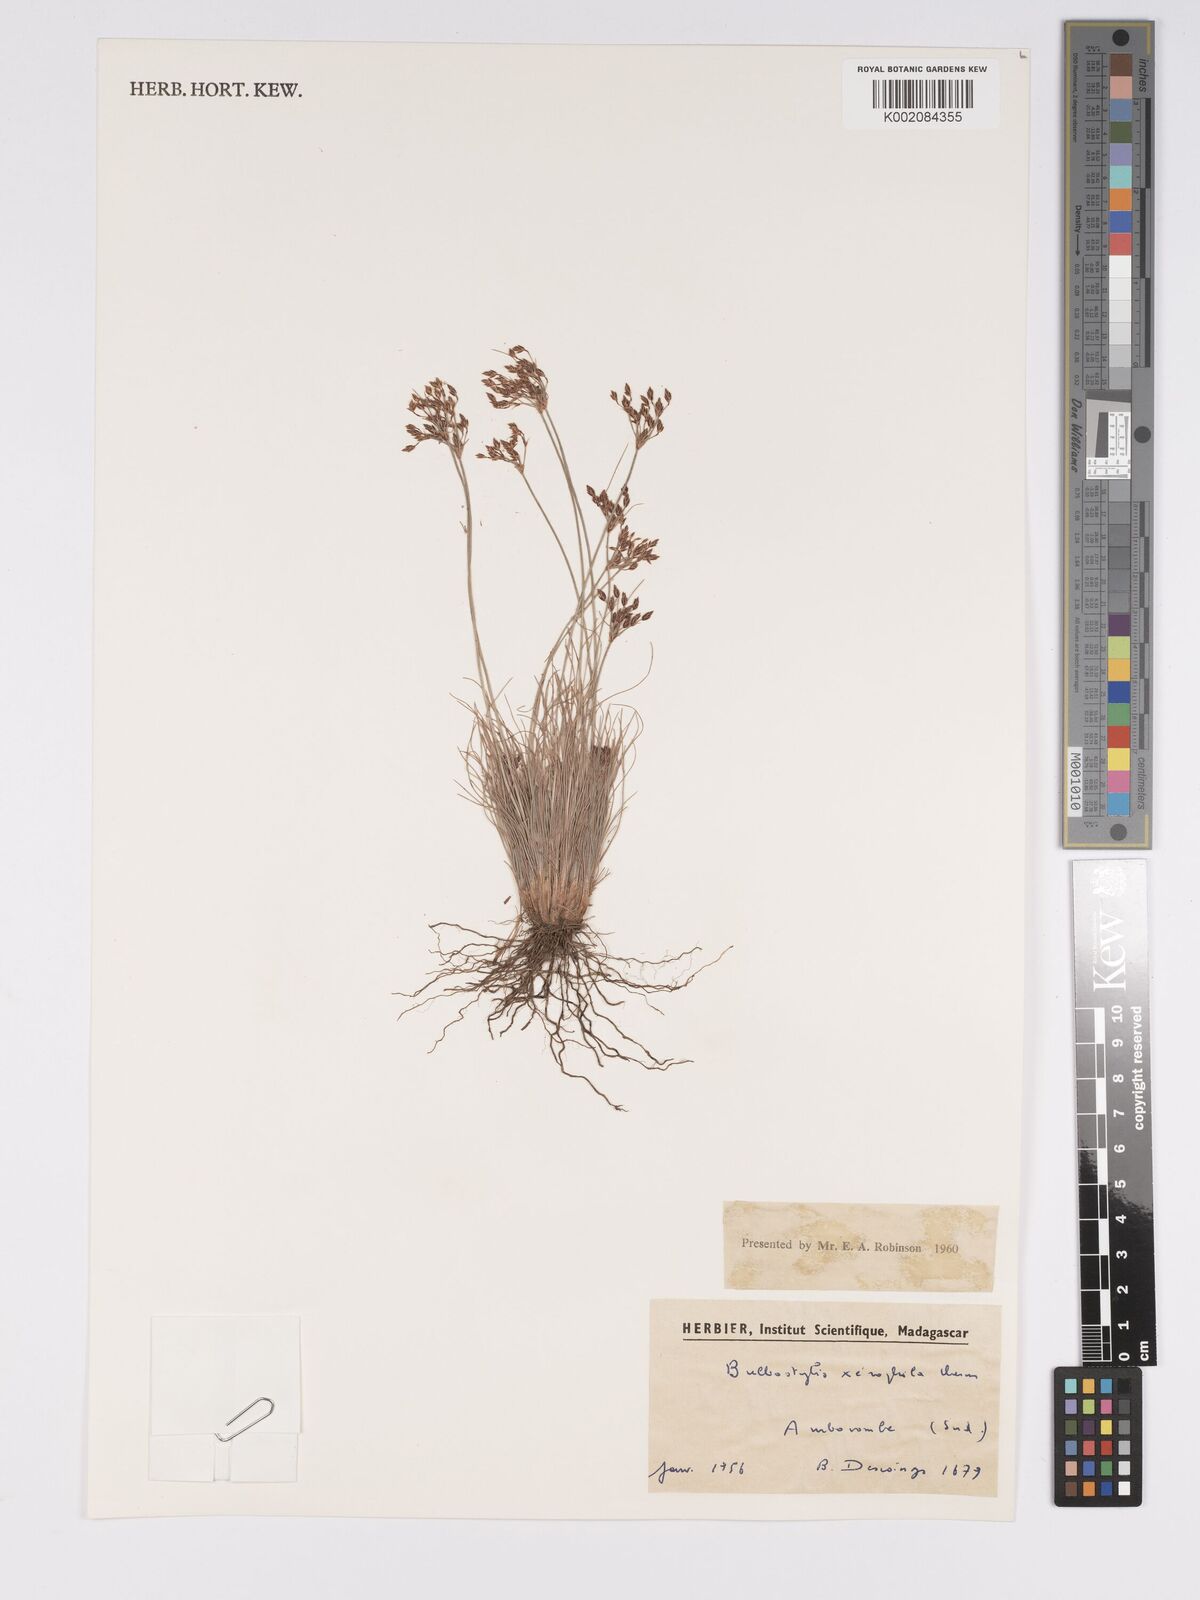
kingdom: Plantae
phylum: Tracheophyta
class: Liliopsida
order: Poales
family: Cyperaceae
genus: Bulbostylis
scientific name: Bulbostylis xerophila
